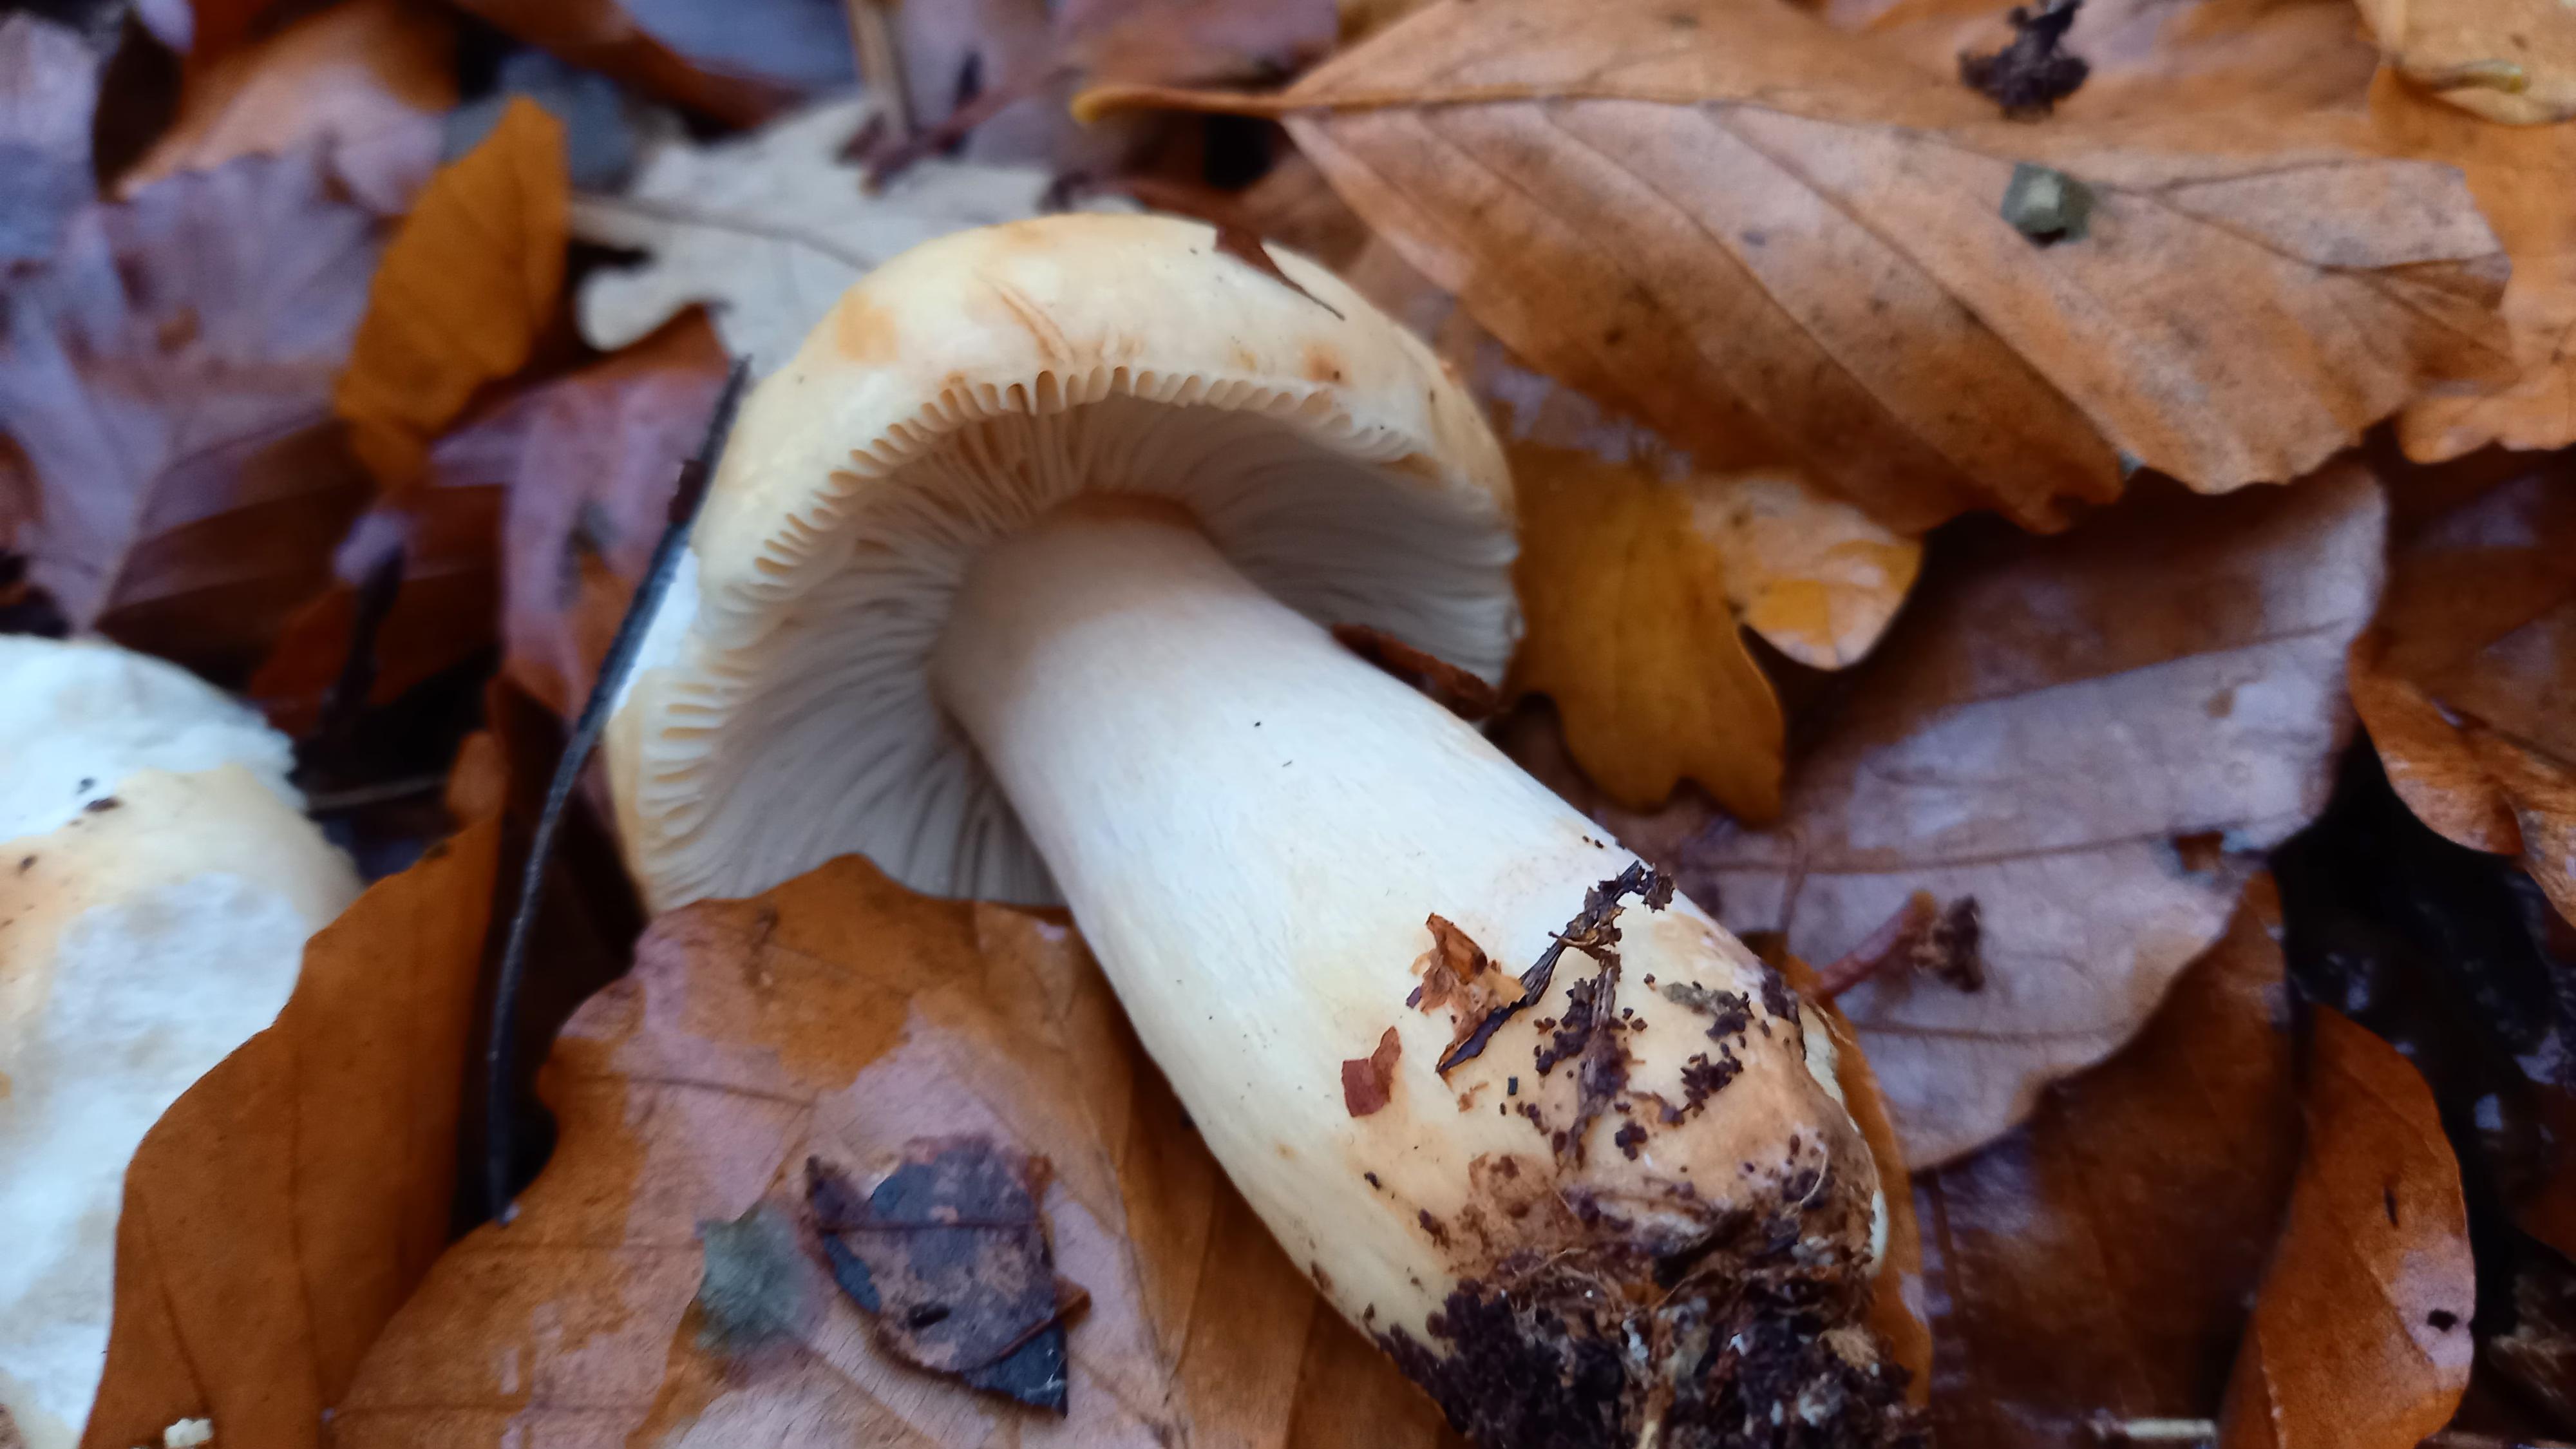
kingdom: Fungi
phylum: Basidiomycota
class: Agaricomycetes
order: Russulales
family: Russulaceae
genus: Russula
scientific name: Russula fellea
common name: galde-skørhat
